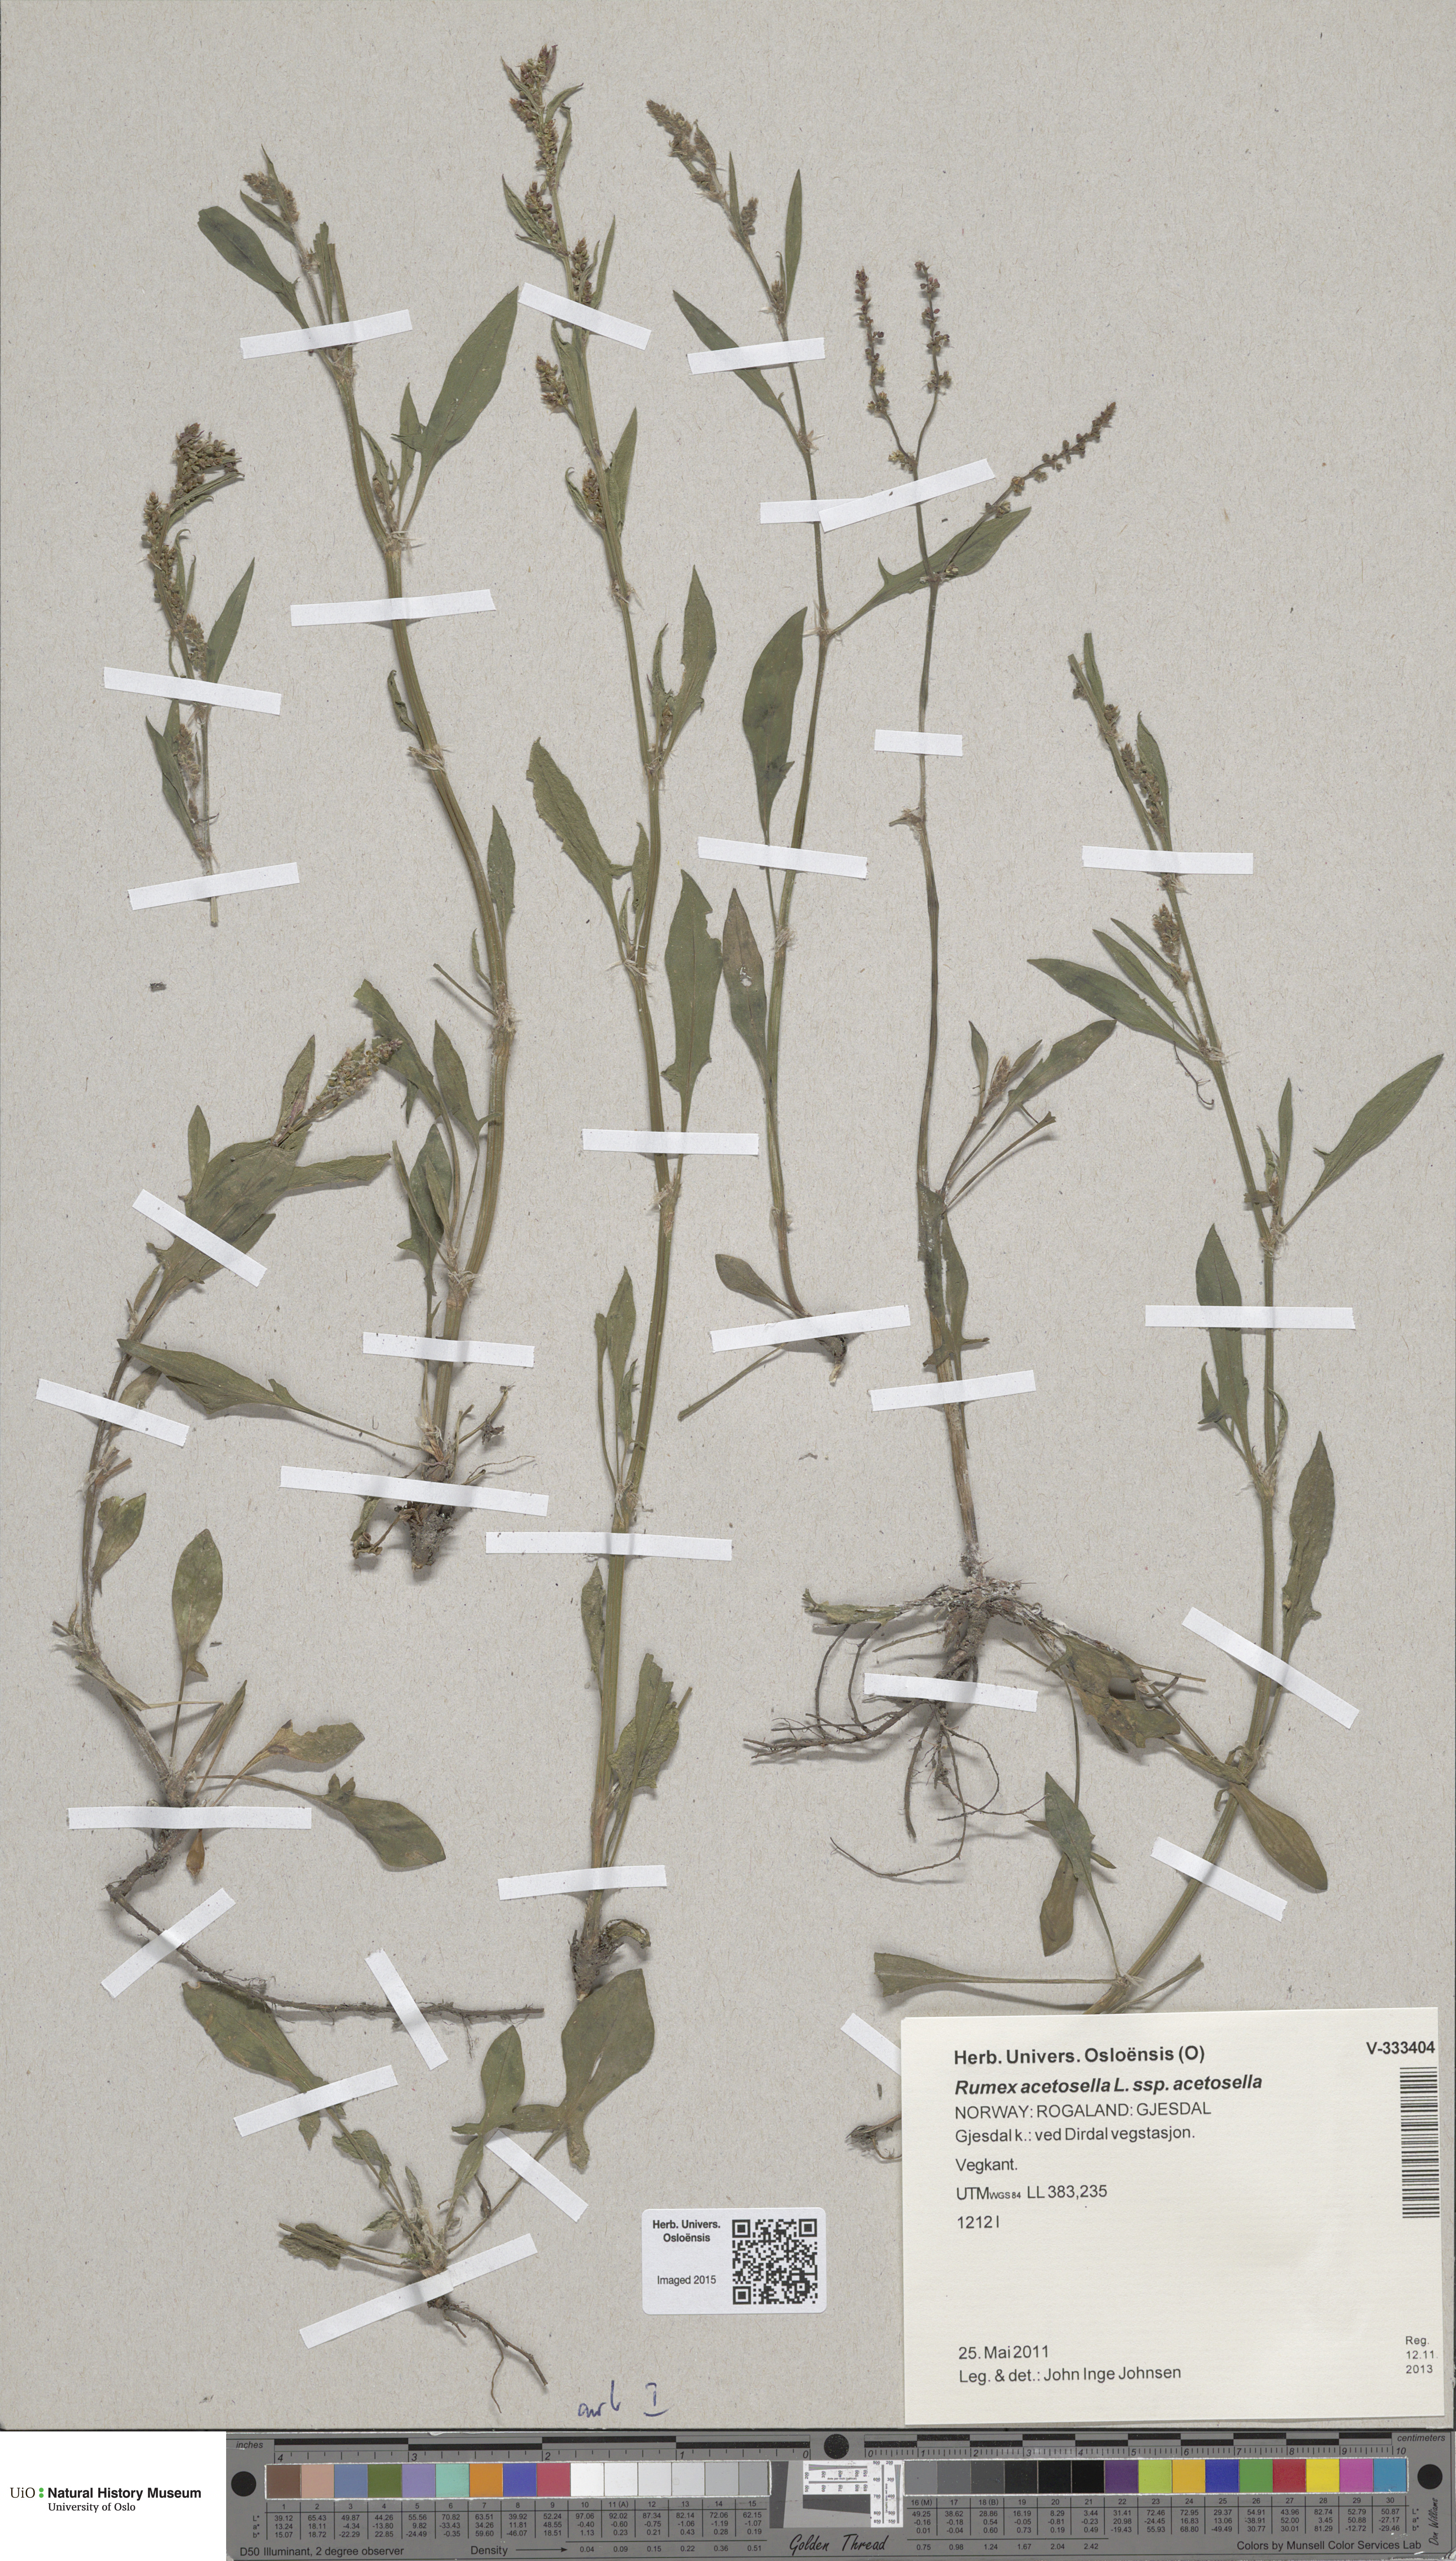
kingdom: Plantae
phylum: Tracheophyta
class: Magnoliopsida
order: Caryophyllales
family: Polygonaceae
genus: Rumex
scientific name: Rumex acetosella
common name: Common sheep sorrel
